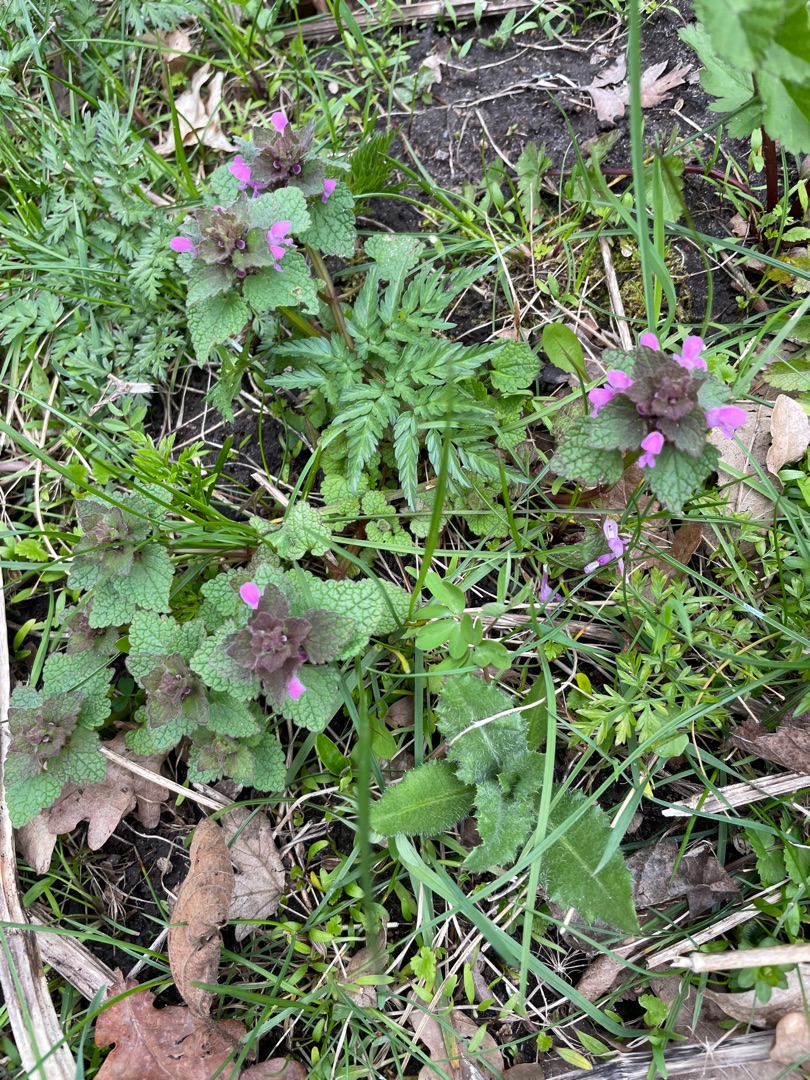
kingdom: Plantae
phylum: Tracheophyta
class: Magnoliopsida
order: Lamiales
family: Lamiaceae
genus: Lamium
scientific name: Lamium purpureum
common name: Rød tvetand
